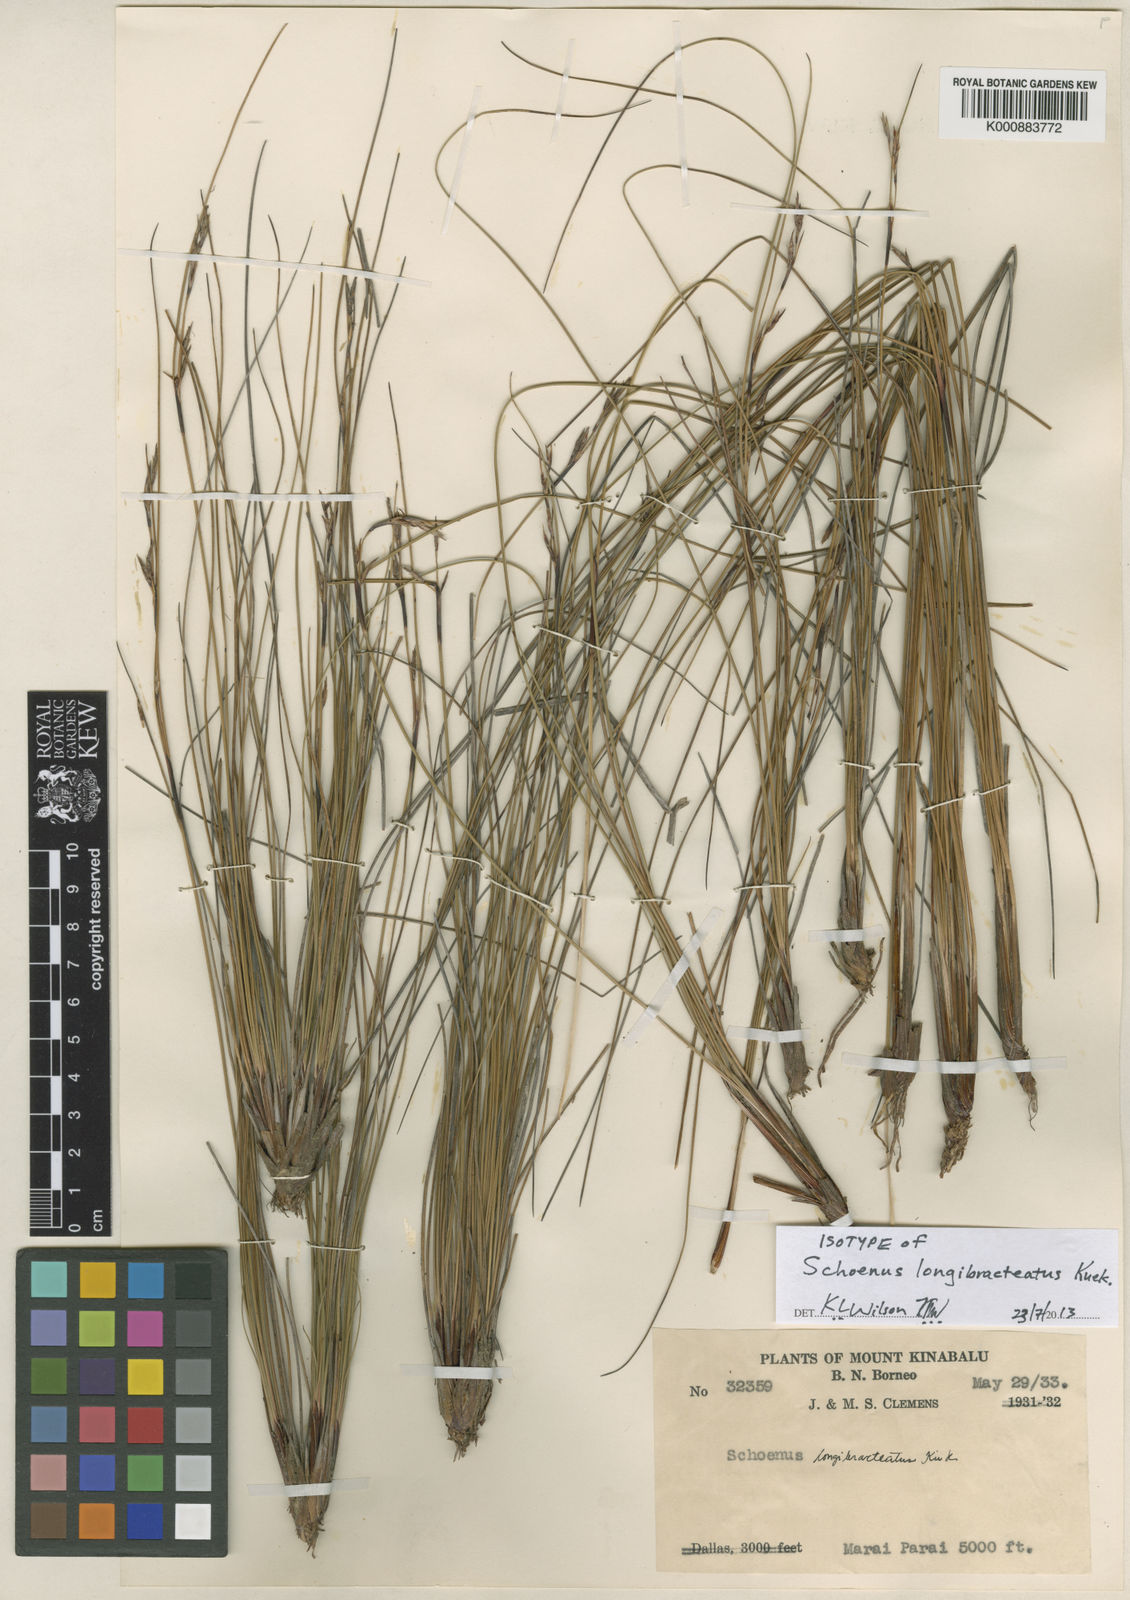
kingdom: Plantae
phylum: Tracheophyta
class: Liliopsida
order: Poales
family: Cyperaceae
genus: Schoenus
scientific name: Schoenus
